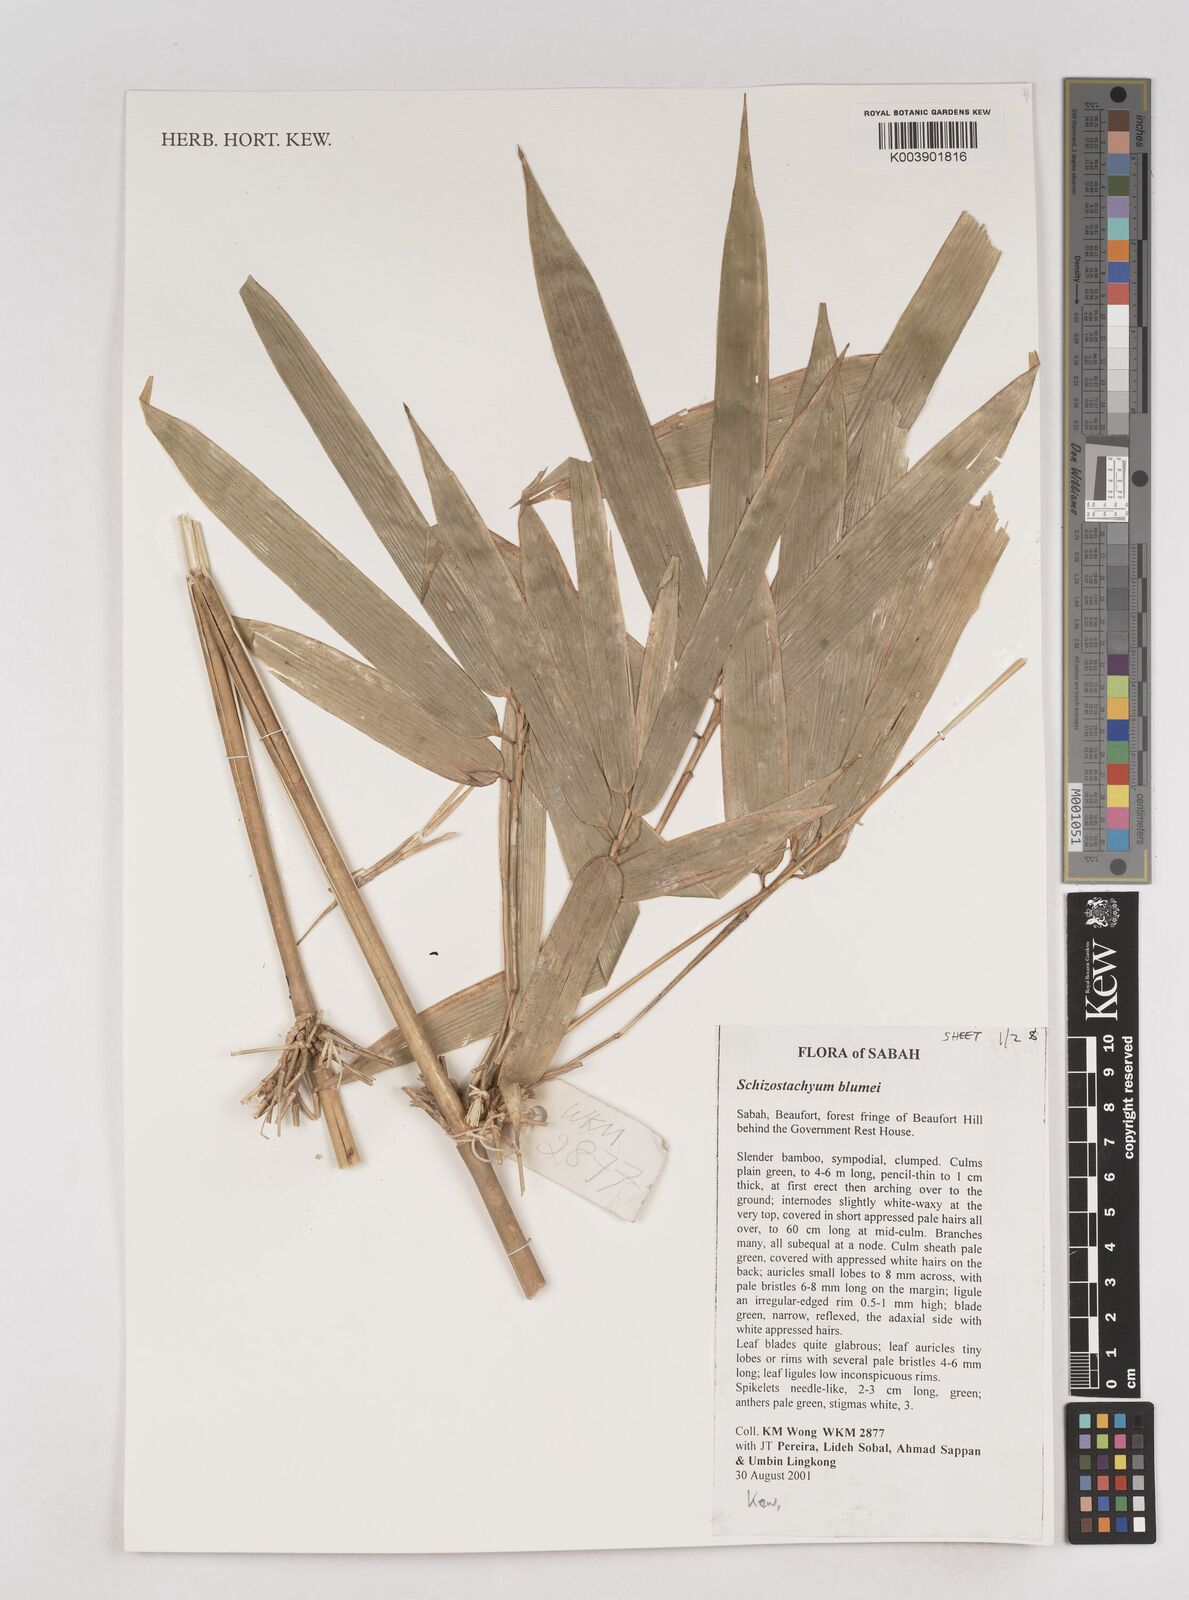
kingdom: Plantae
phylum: Tracheophyta
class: Liliopsida
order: Poales
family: Poaceae
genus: Schizostachyum
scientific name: Schizostachyum blumei
